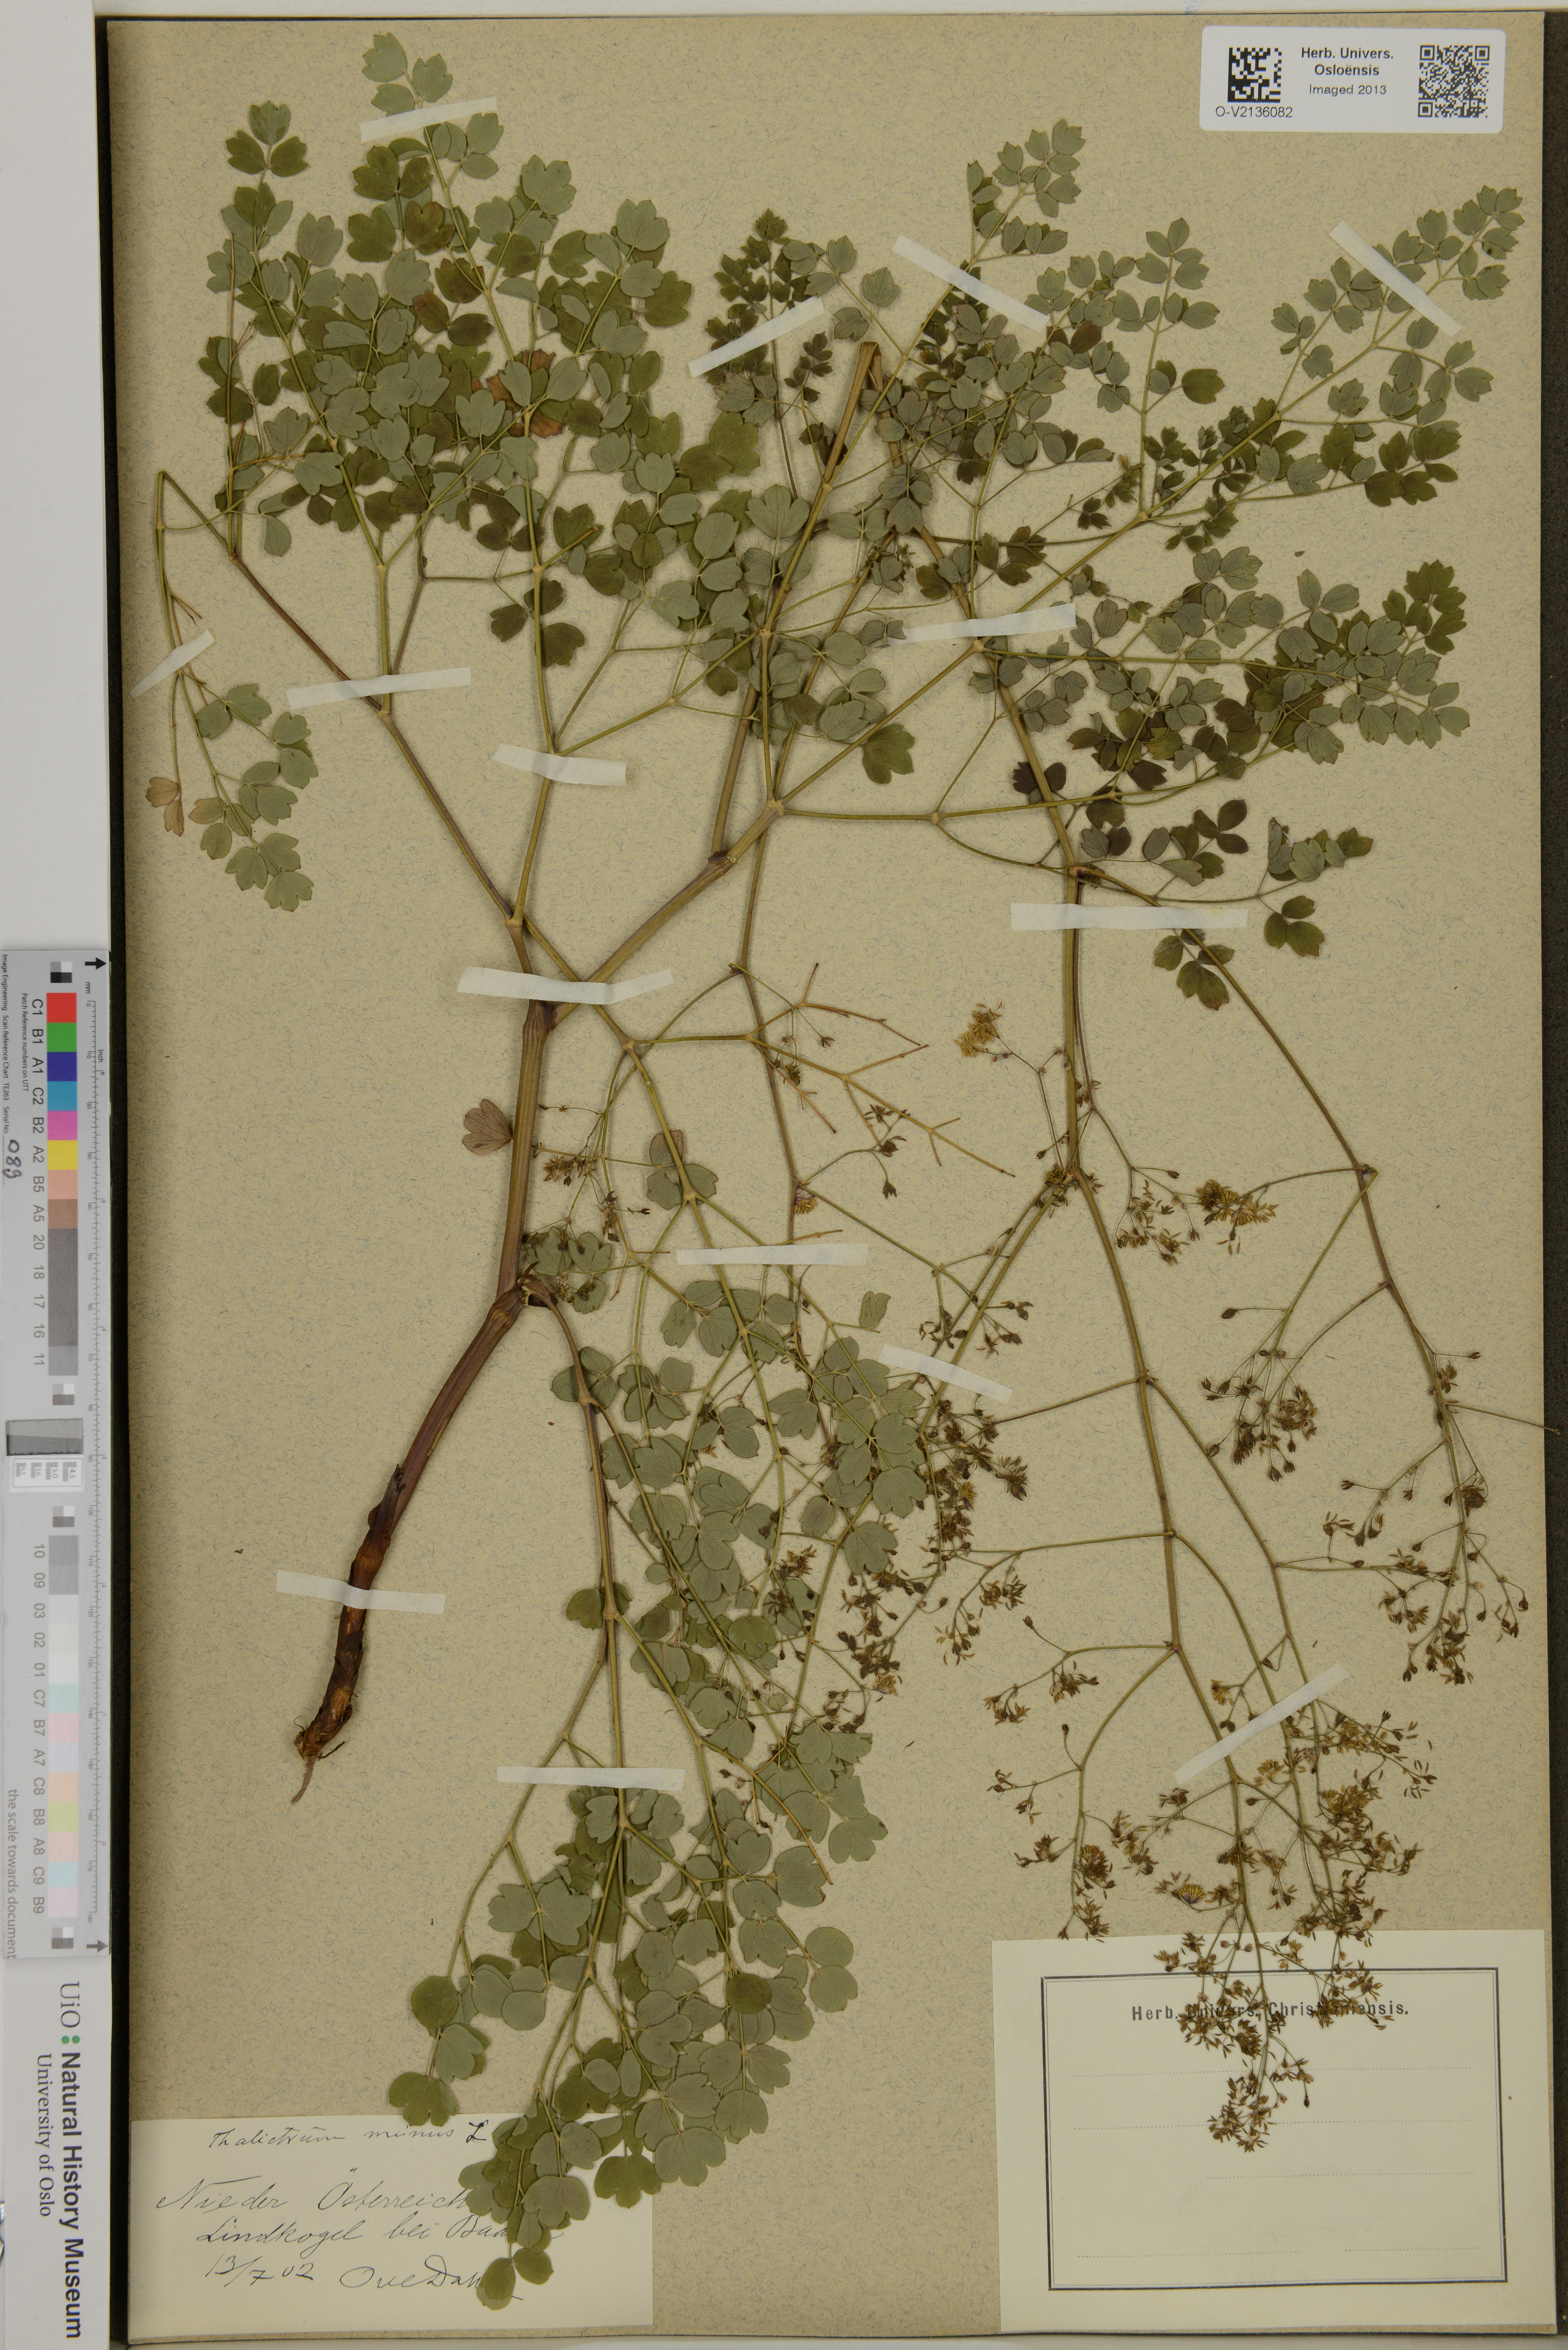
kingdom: Plantae
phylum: Tracheophyta
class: Magnoliopsida
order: Ranunculales
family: Ranunculaceae
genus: Thalictrum
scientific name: Thalictrum minus
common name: Lesser meadow-rue
